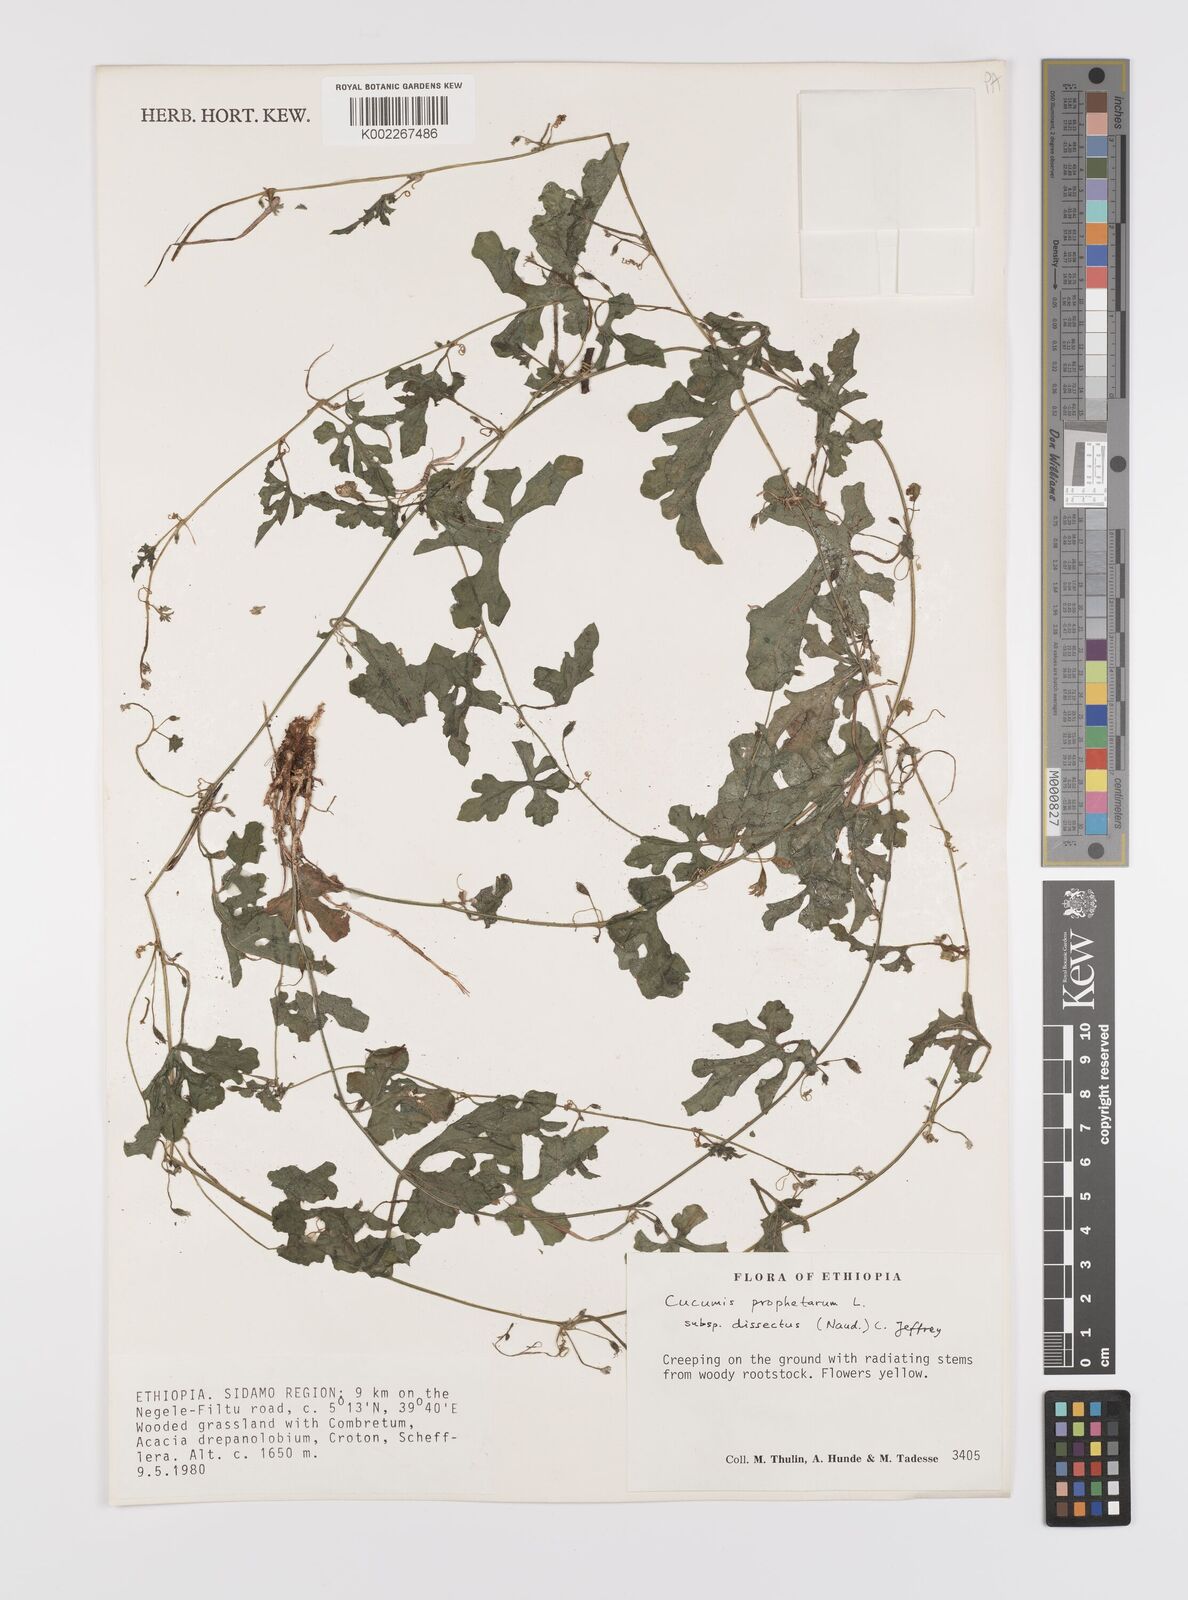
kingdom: Plantae
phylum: Tracheophyta
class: Magnoliopsida
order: Cucurbitales
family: Cucurbitaceae
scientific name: Cucurbitaceae
